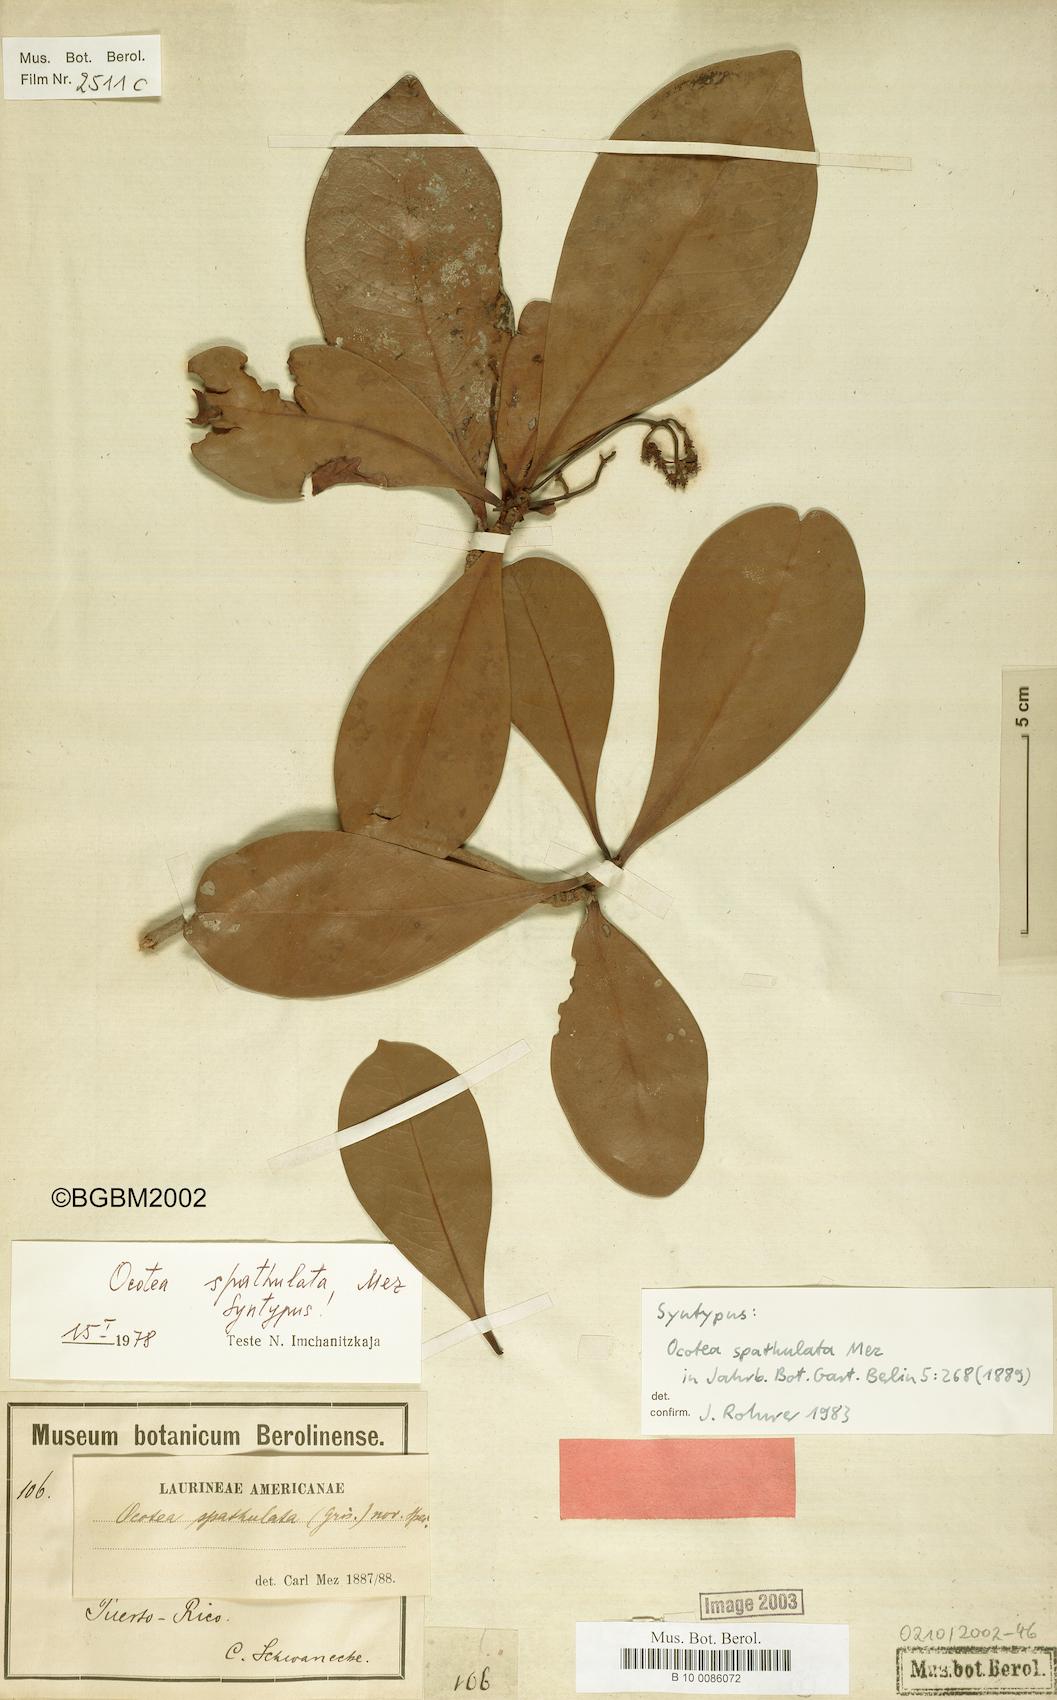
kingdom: Plantae
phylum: Tracheophyta
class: Magnoliopsida
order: Laurales
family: Lauraceae
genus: Ocotea
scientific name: Ocotea spathulata
